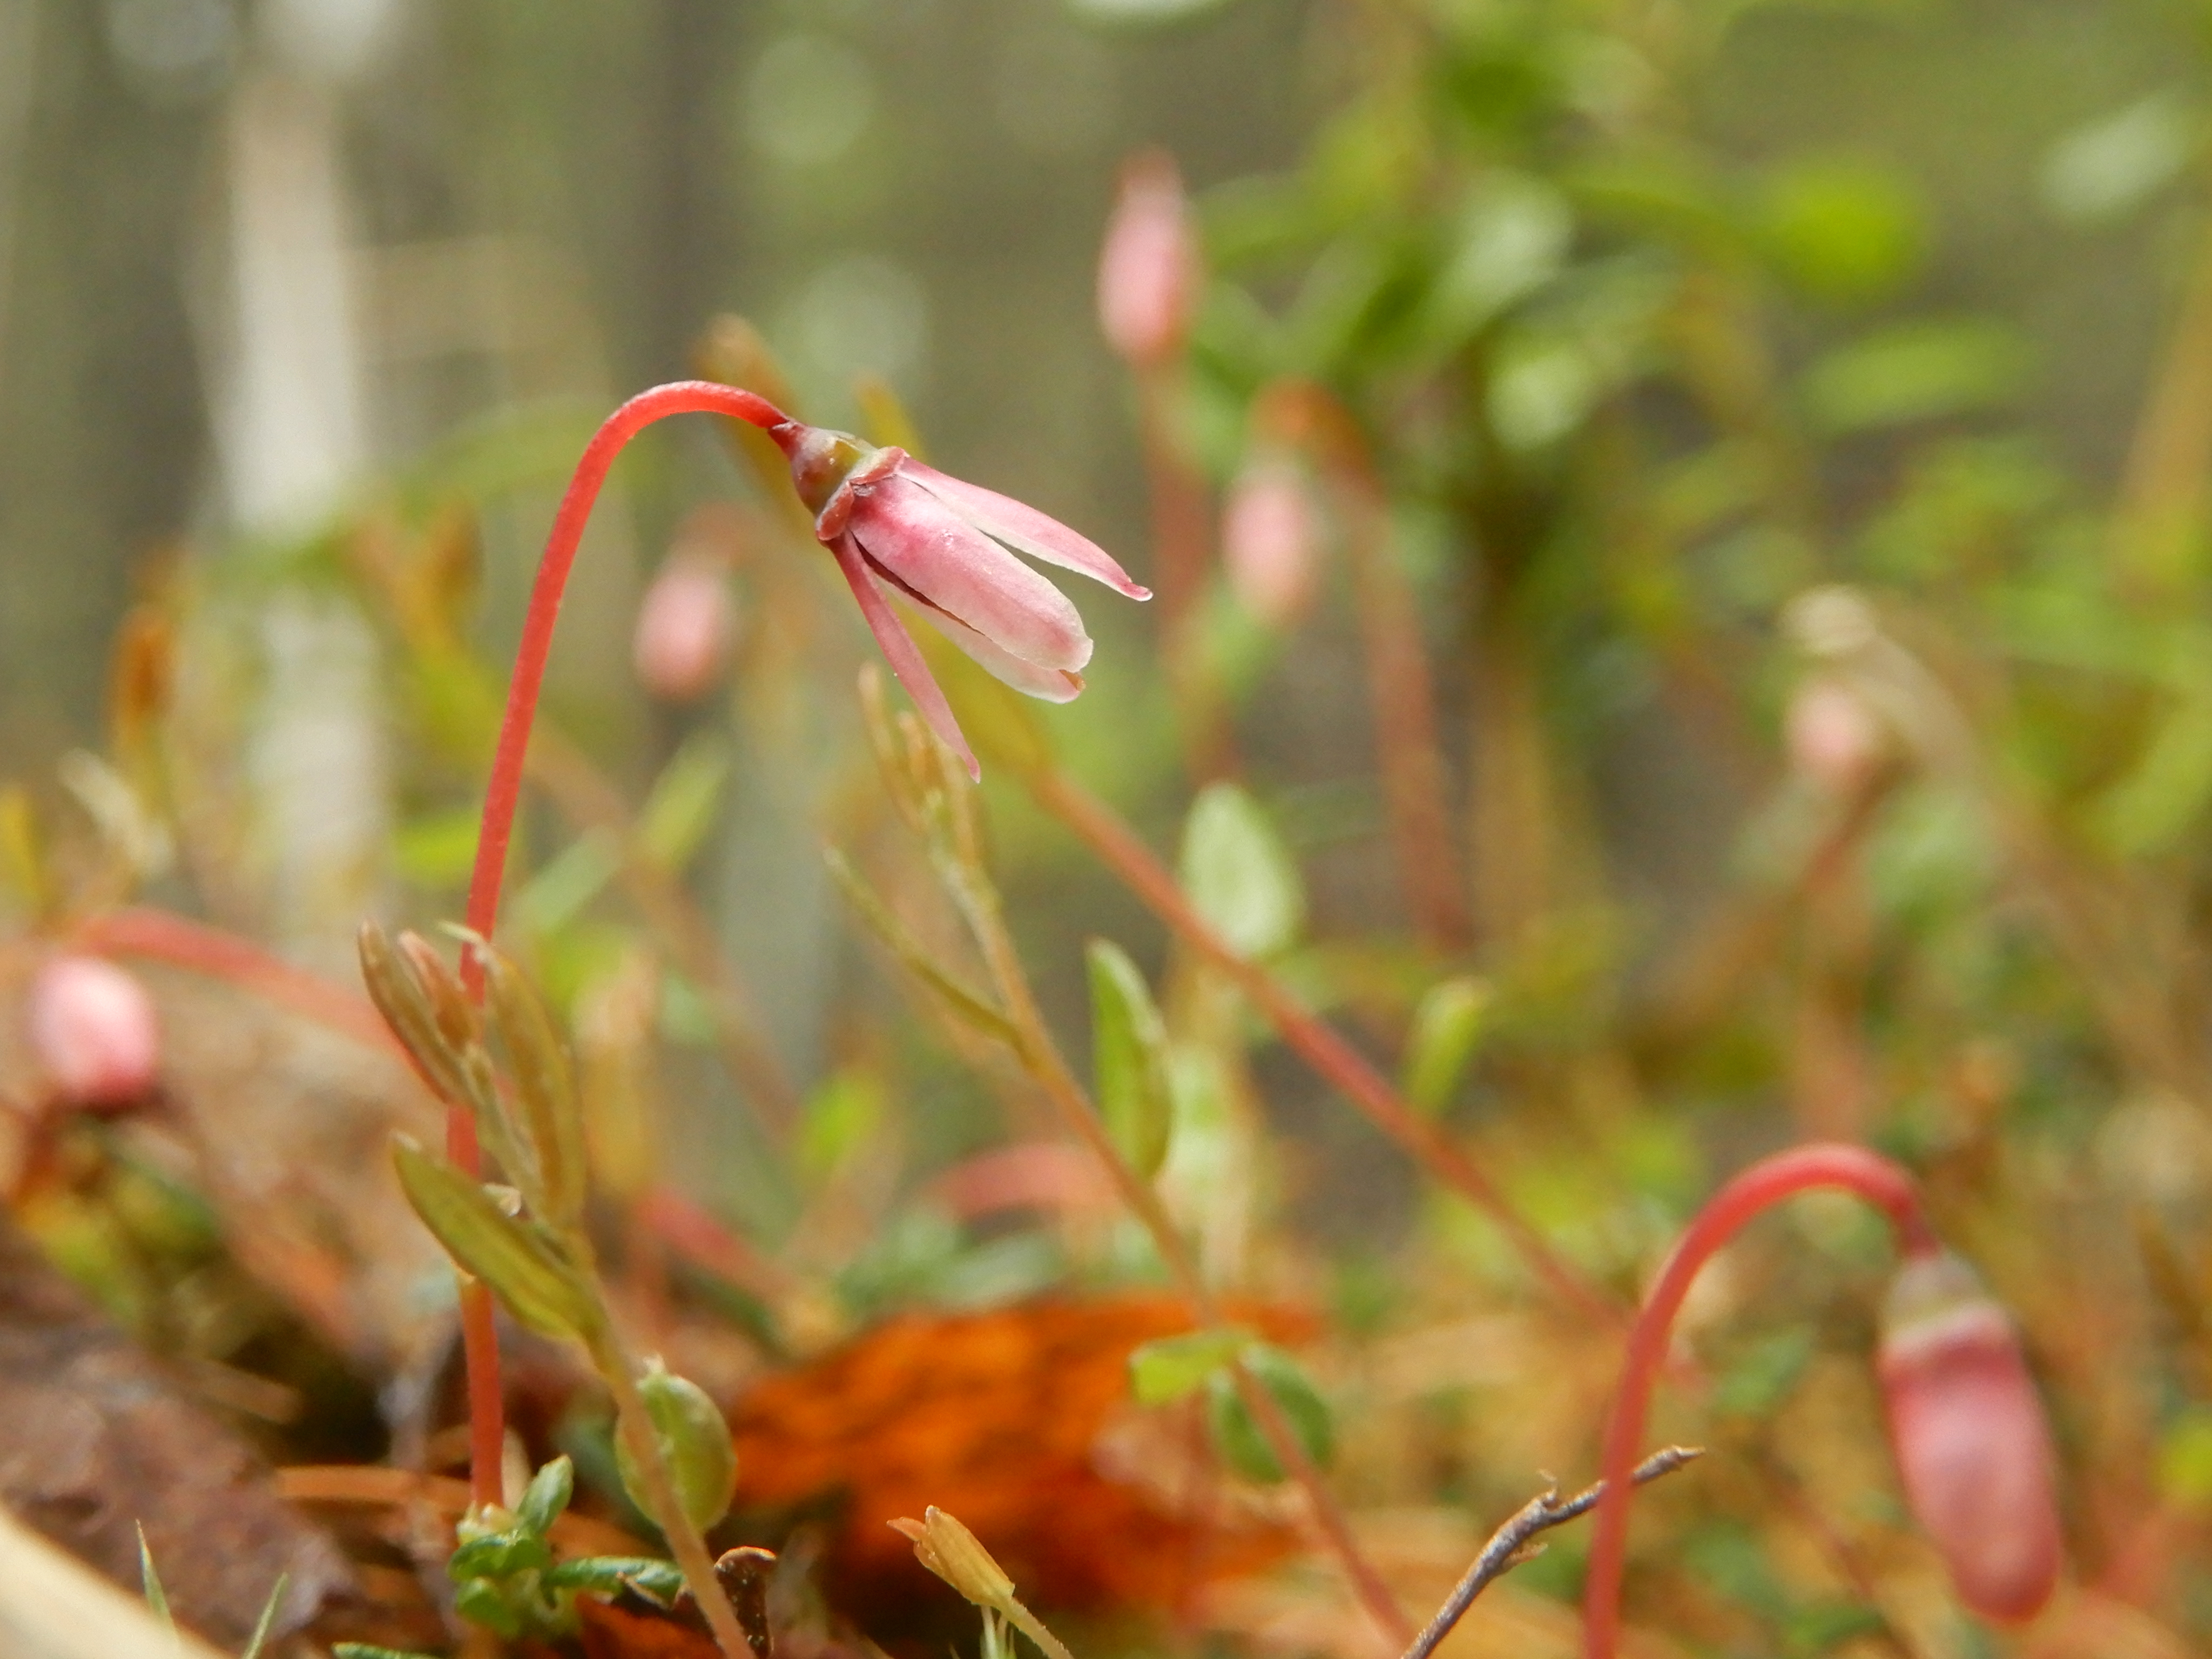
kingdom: Plantae
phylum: Tracheophyta
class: Magnoliopsida
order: Ericales
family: Ericaceae
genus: Vaccinium
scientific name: Vaccinium microcarpum
